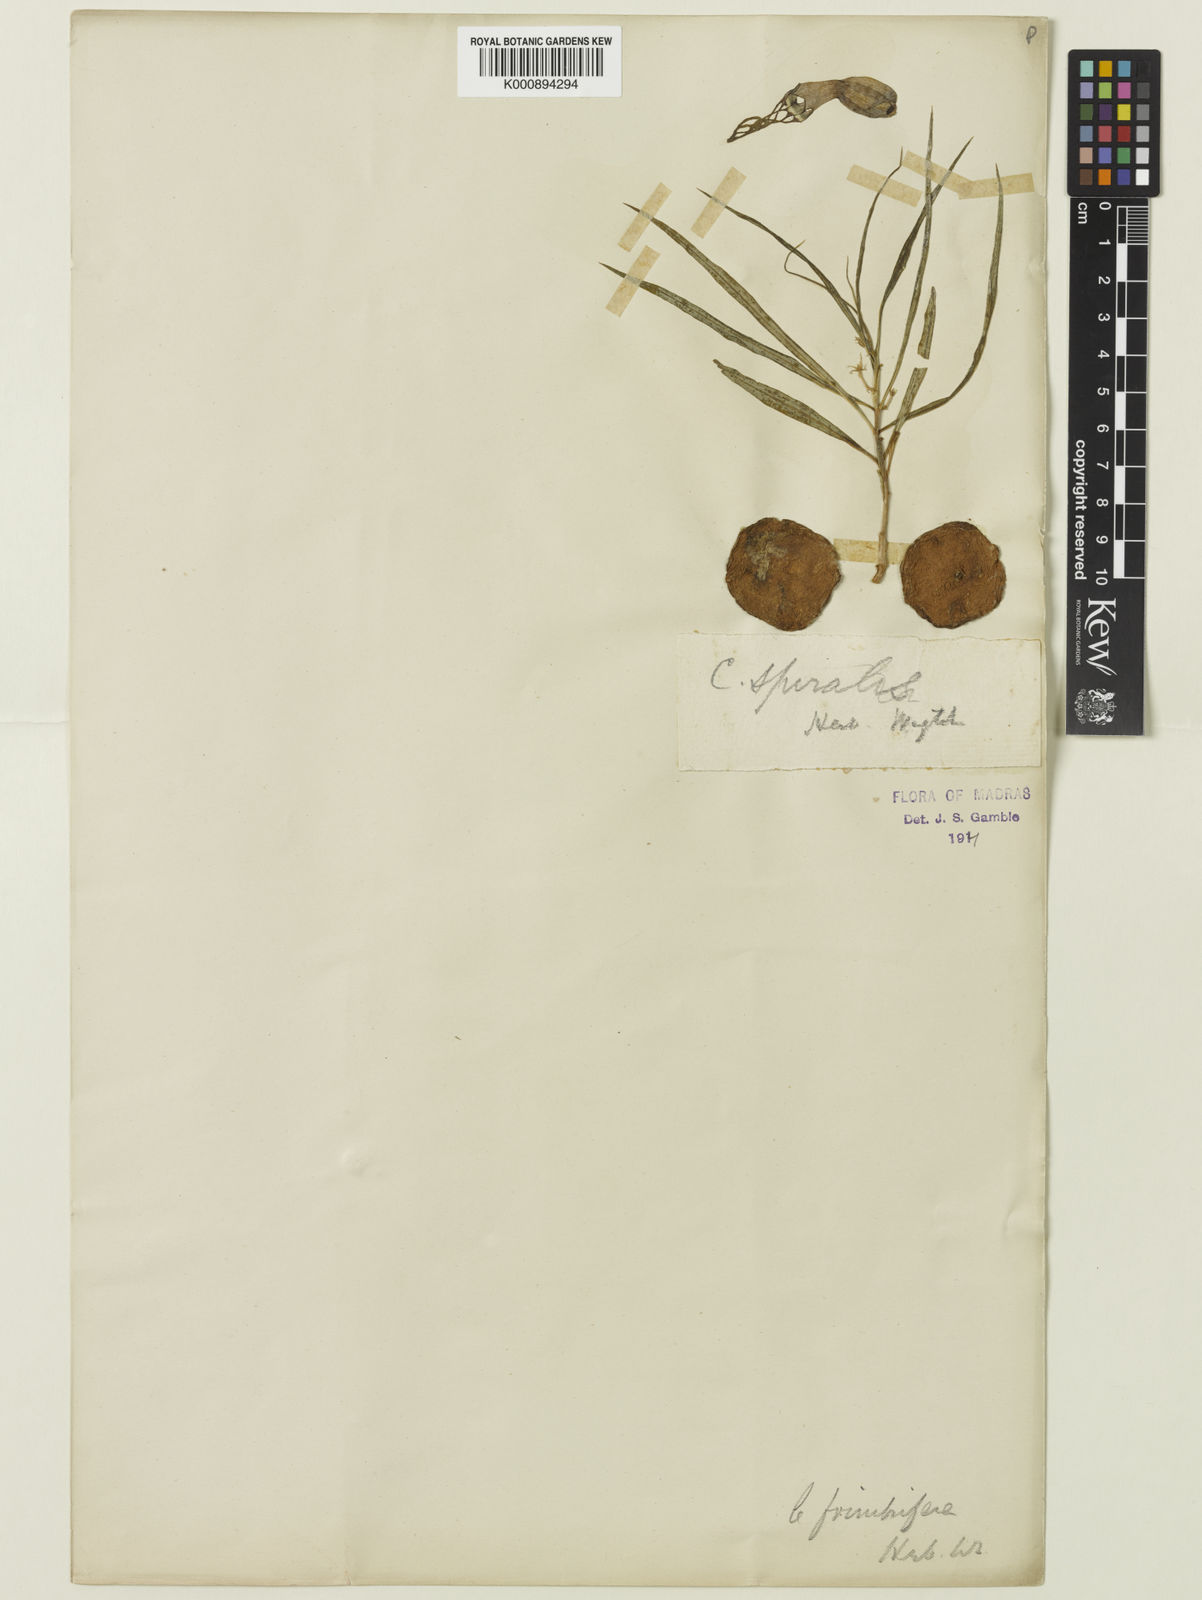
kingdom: Plantae
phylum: Tracheophyta
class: Magnoliopsida
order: Gentianales
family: Apocynaceae
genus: Ceropegia
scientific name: Ceropegia spiralis
